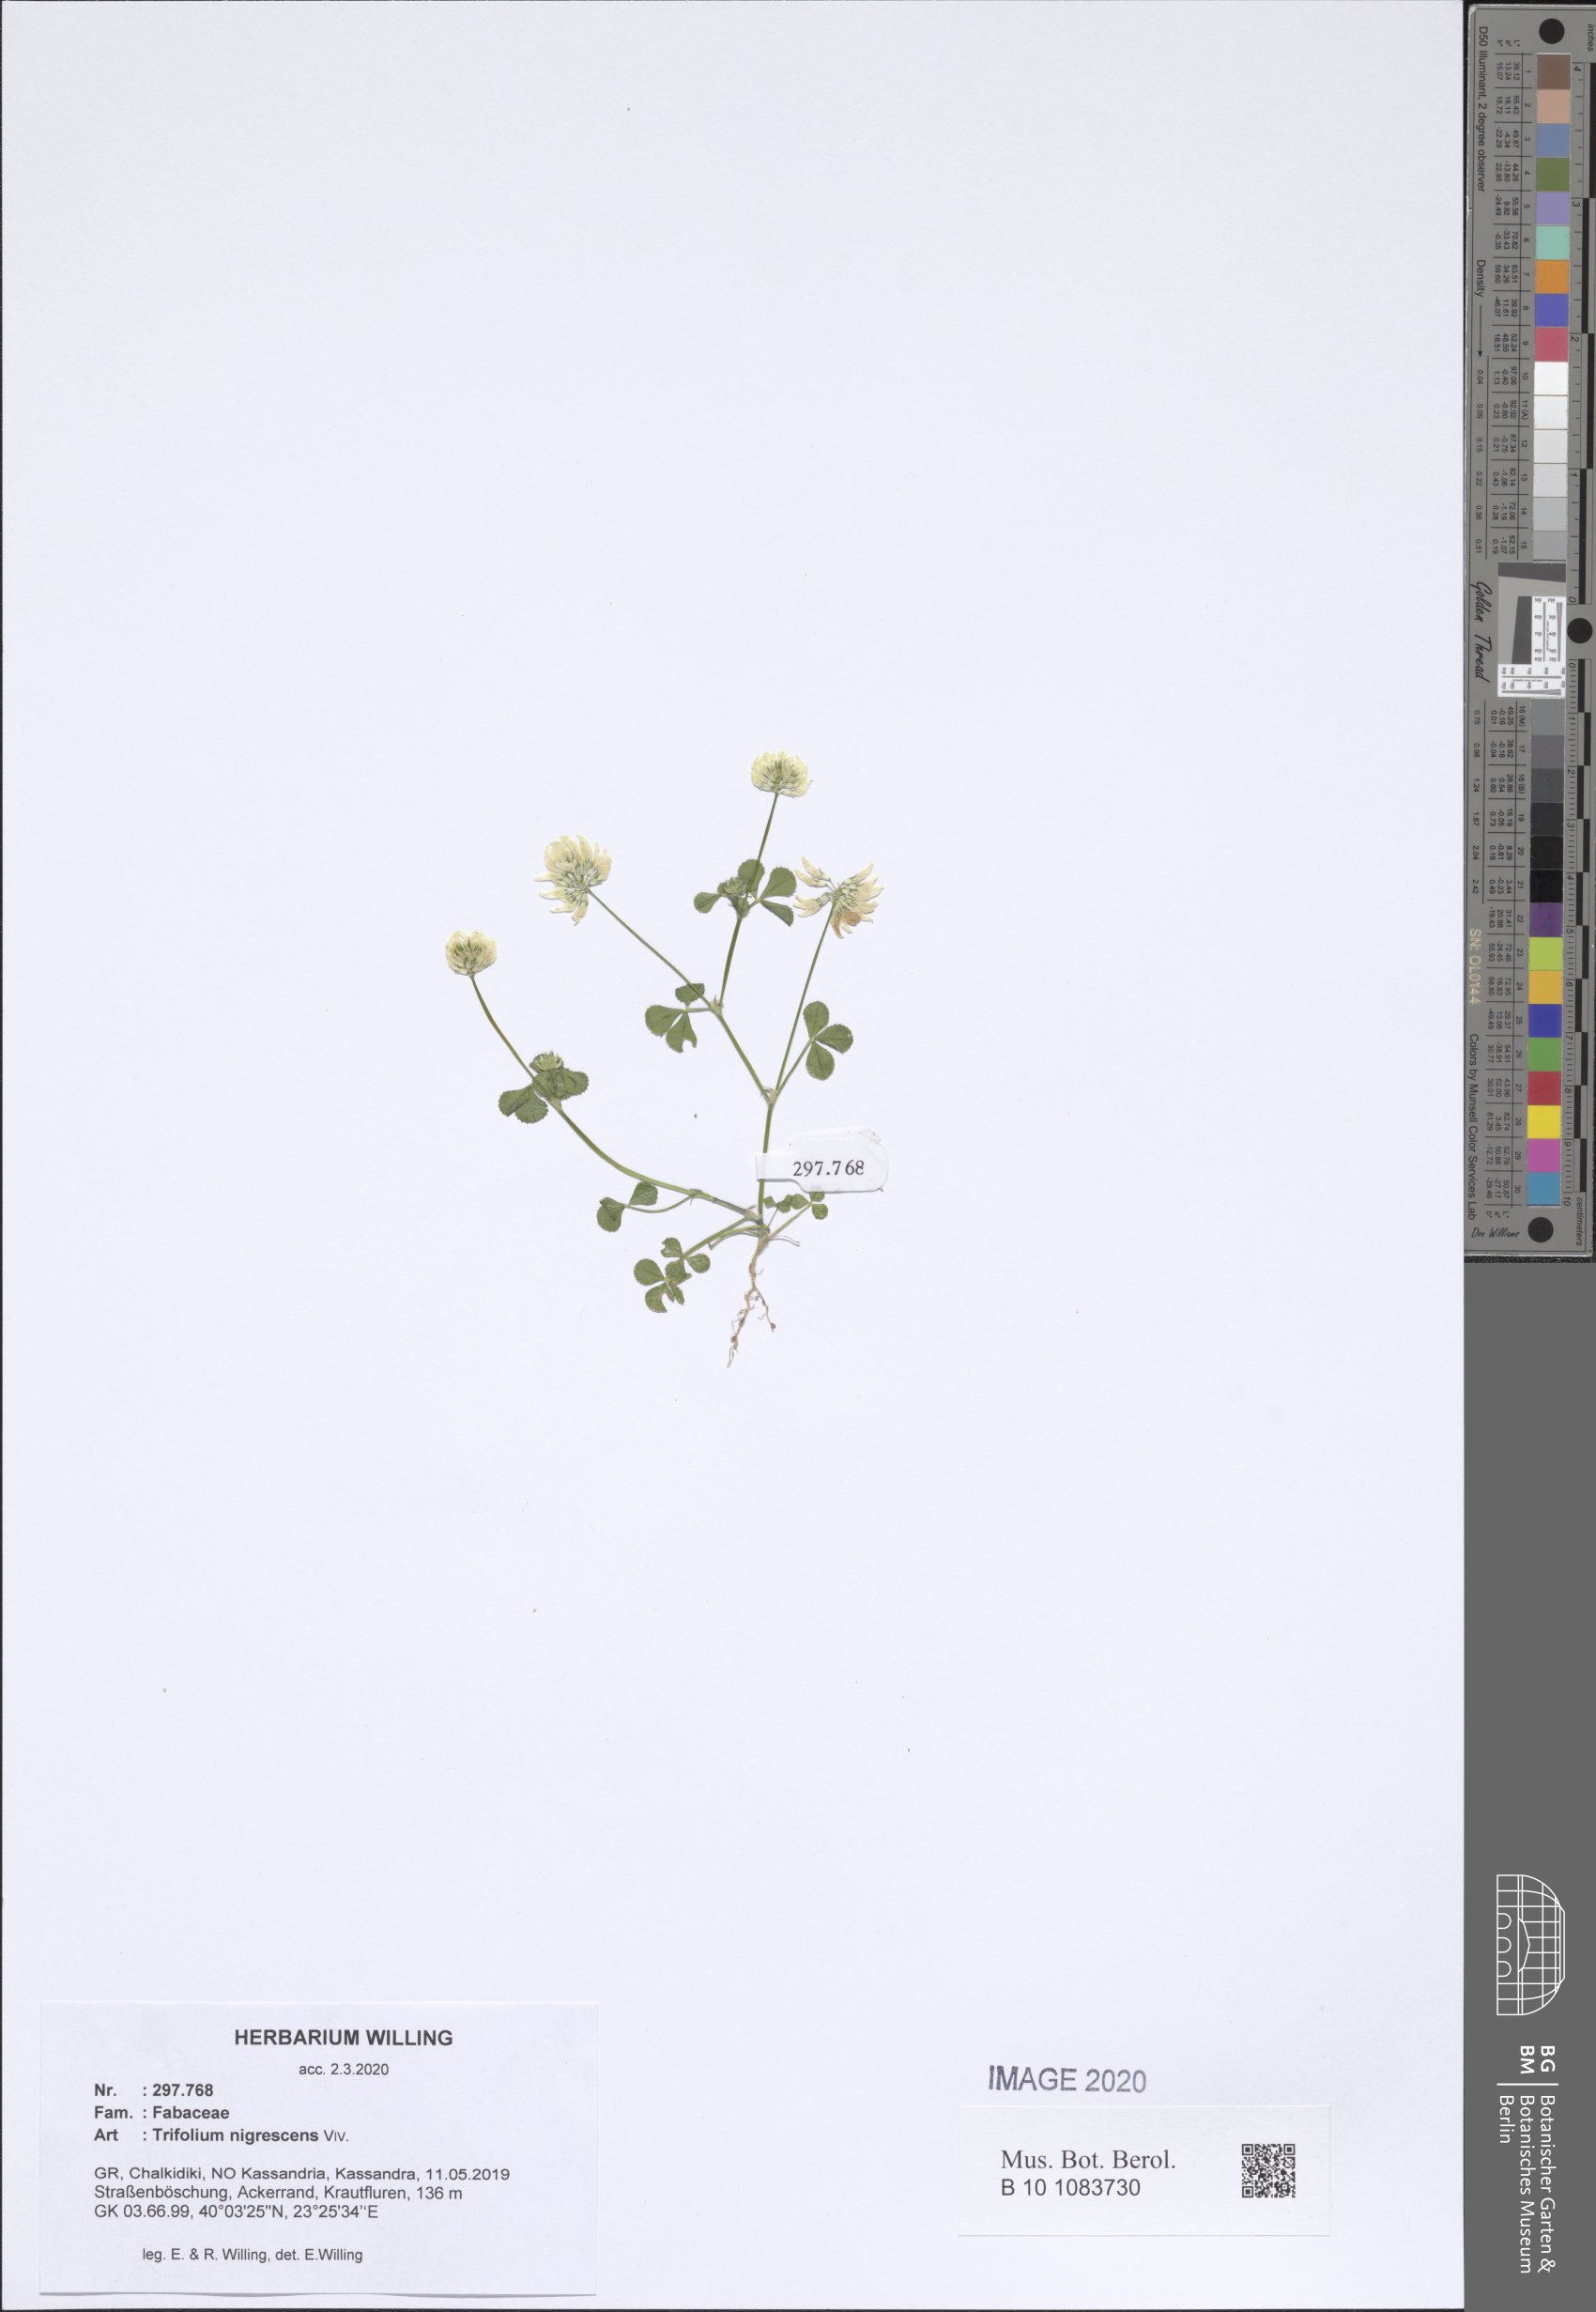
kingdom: Plantae
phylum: Tracheophyta
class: Magnoliopsida
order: Fabales
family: Fabaceae
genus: Trifolium
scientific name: Trifolium nigrescens
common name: Small white clover
